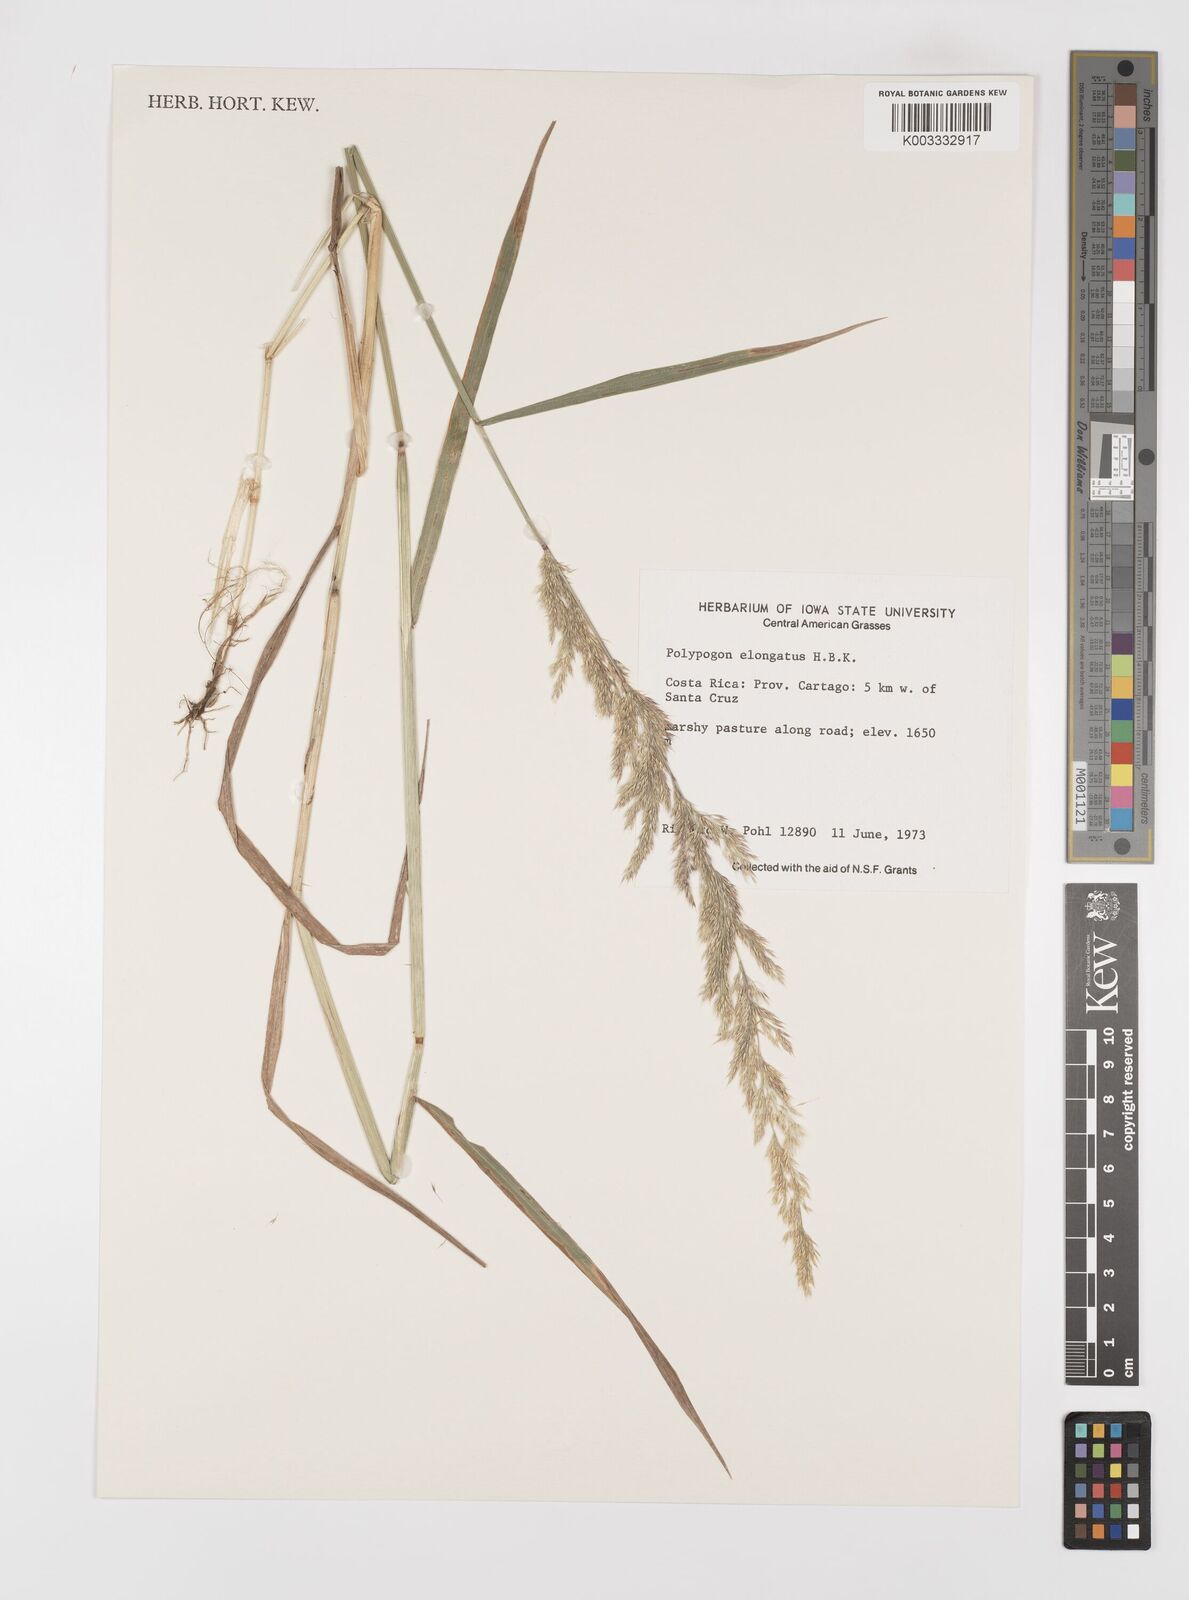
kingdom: Plantae
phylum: Tracheophyta
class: Liliopsida
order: Poales
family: Poaceae
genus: Polypogon
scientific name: Polypogon elongatus
